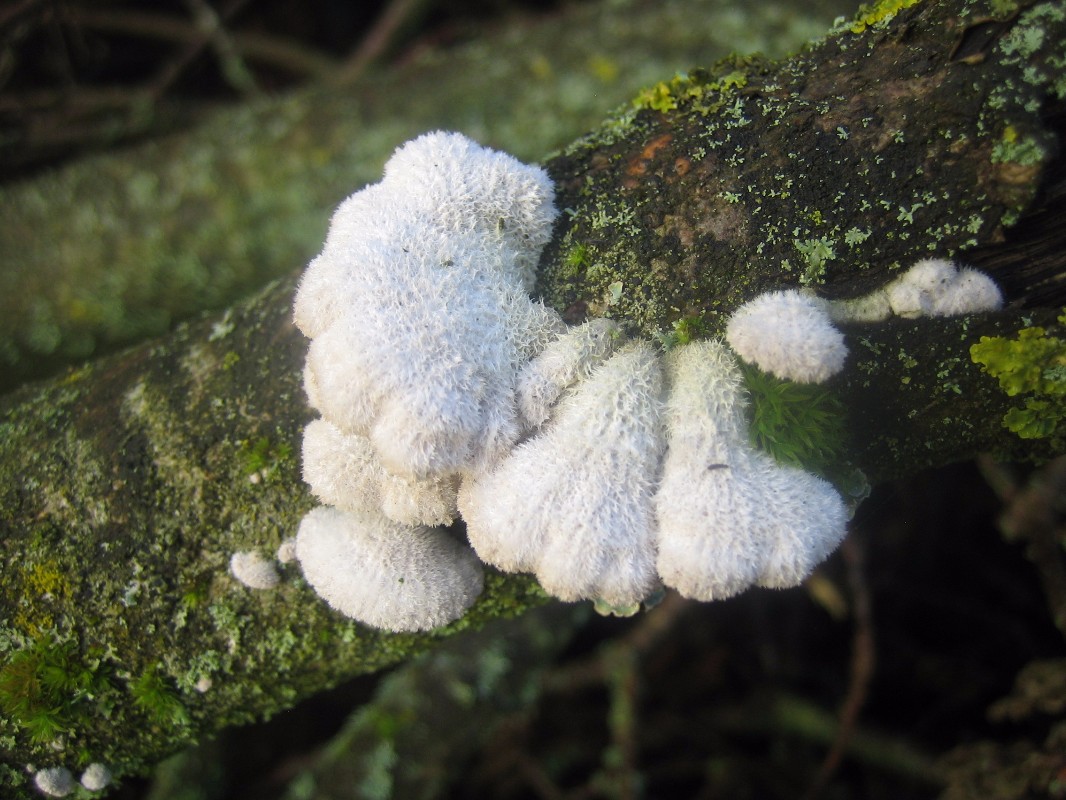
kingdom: Fungi
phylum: Basidiomycota
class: Agaricomycetes
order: Agaricales
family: Schizophyllaceae
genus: Schizophyllum
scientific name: Schizophyllum commune
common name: kløvblad
